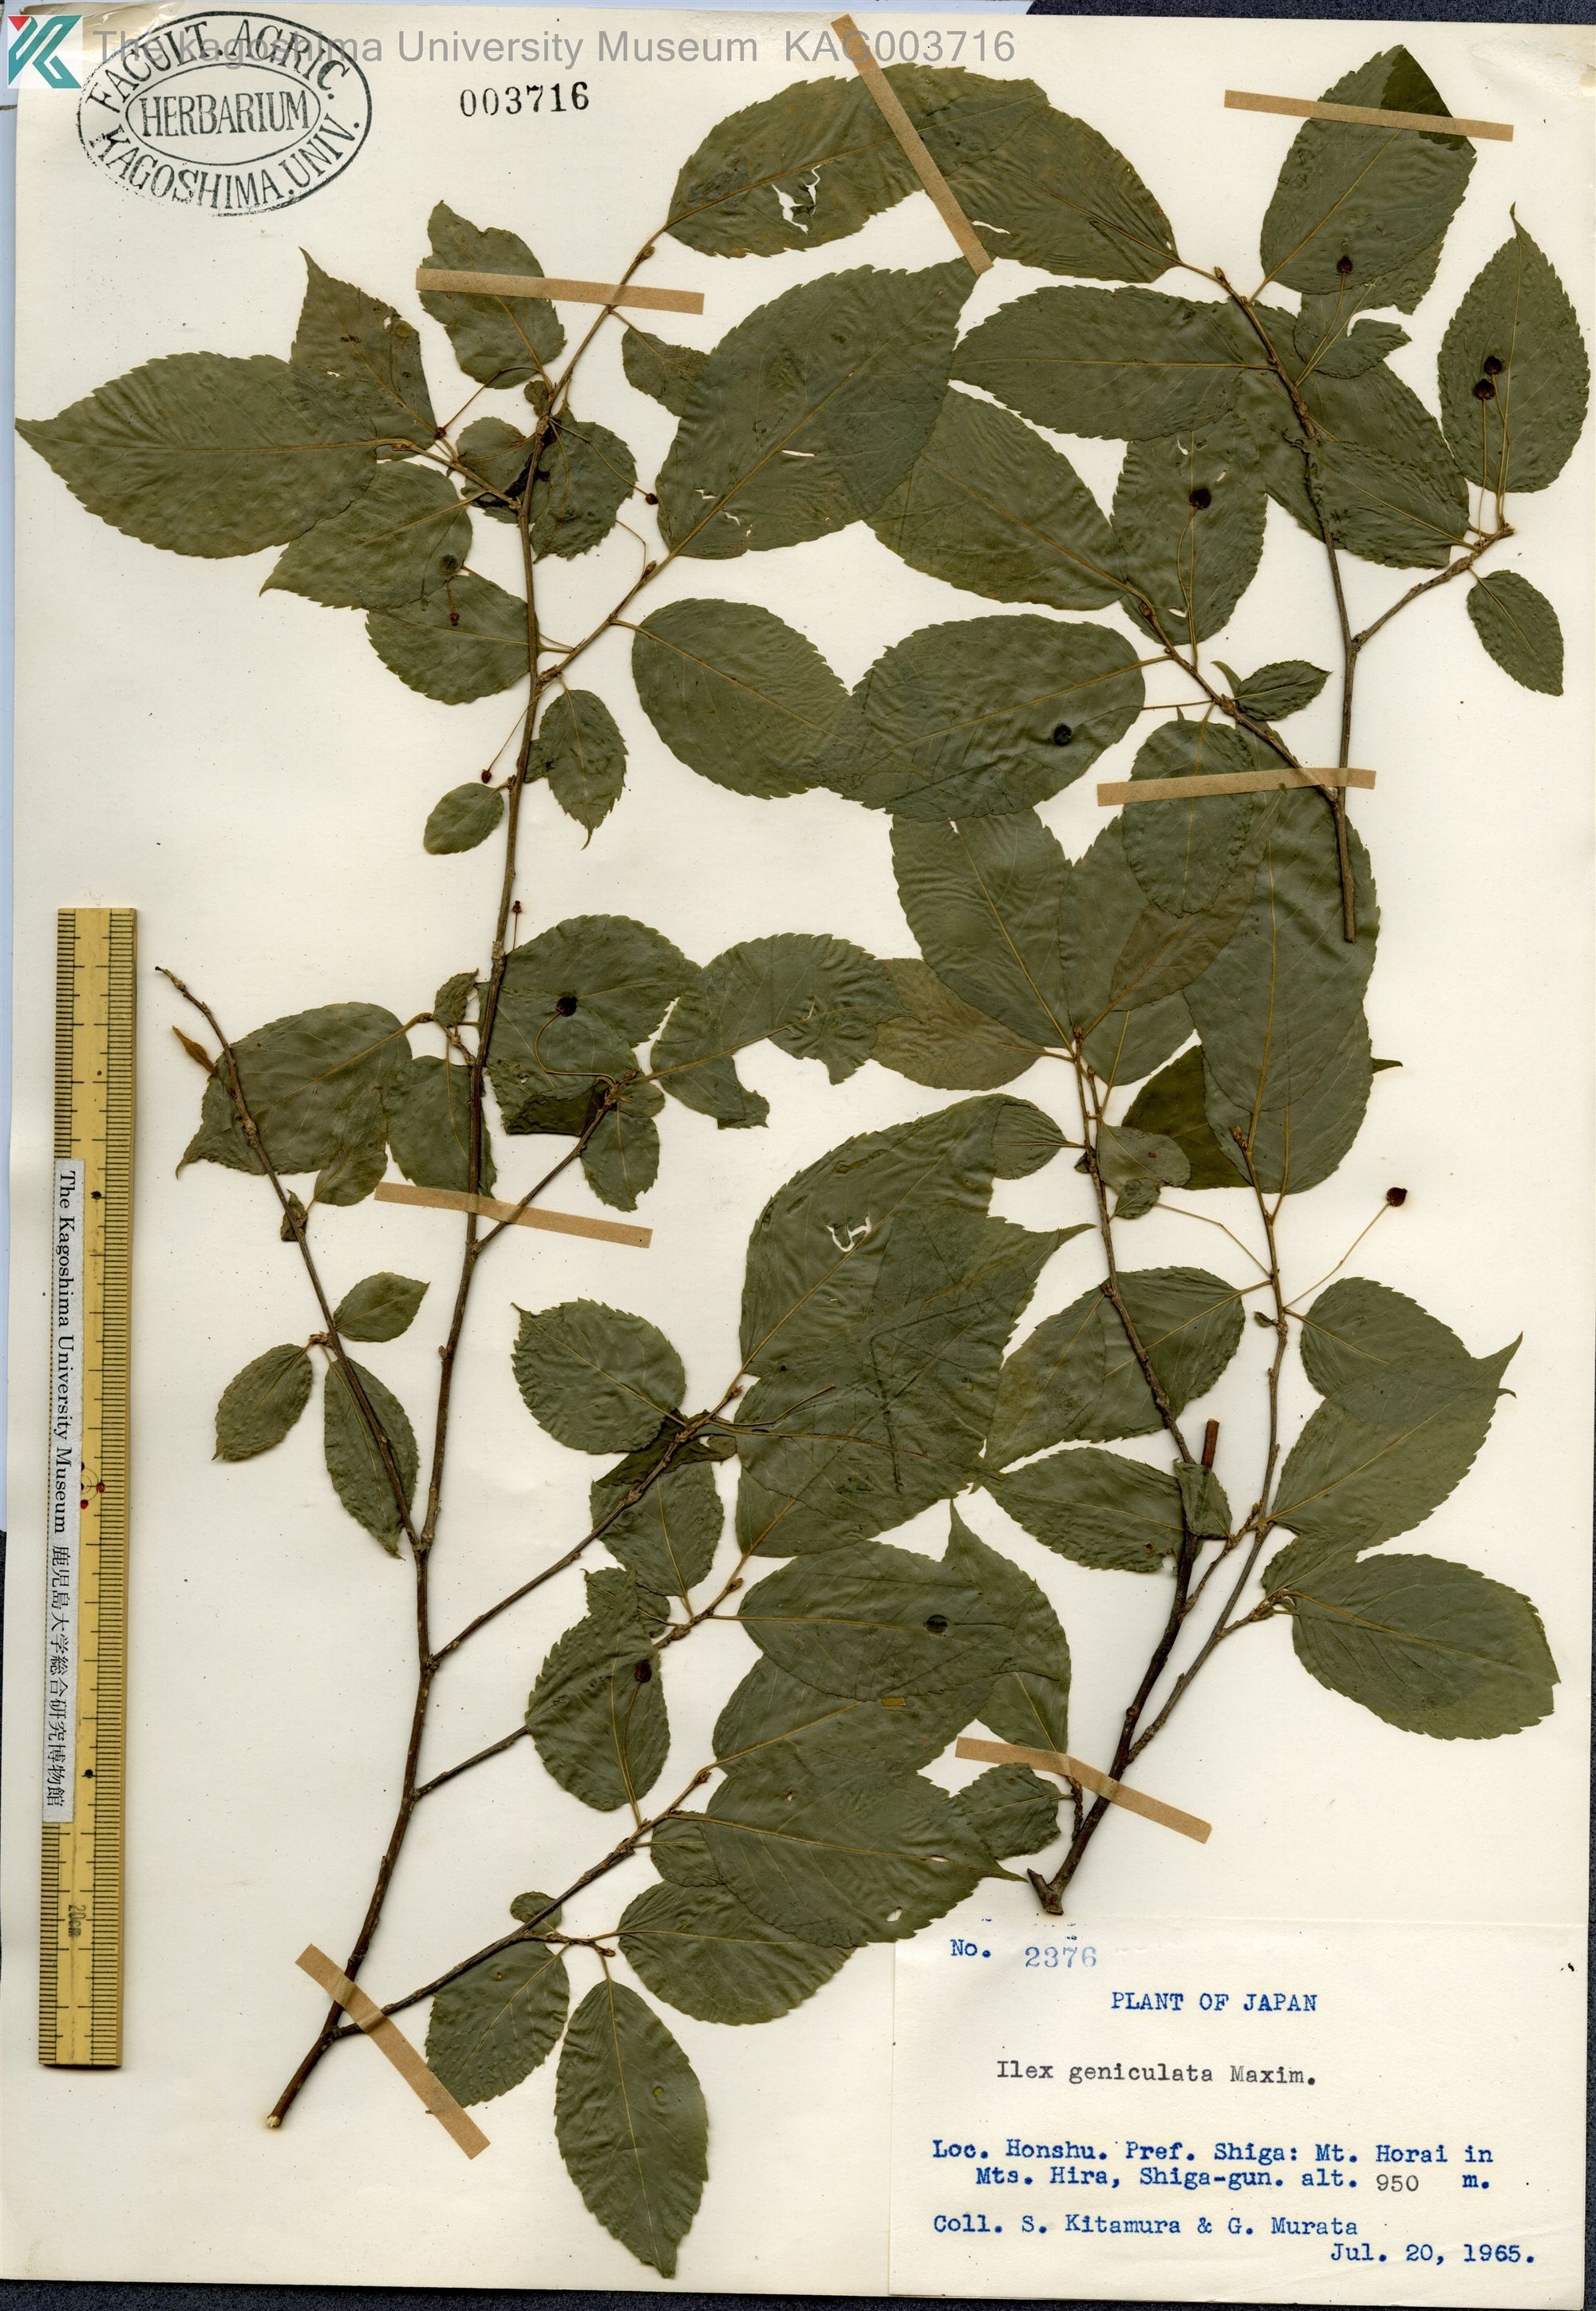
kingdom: Plantae
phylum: Tracheophyta
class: Magnoliopsida
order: Aquifoliales
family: Aquifoliaceae
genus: Ilex
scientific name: Ilex geniculata
